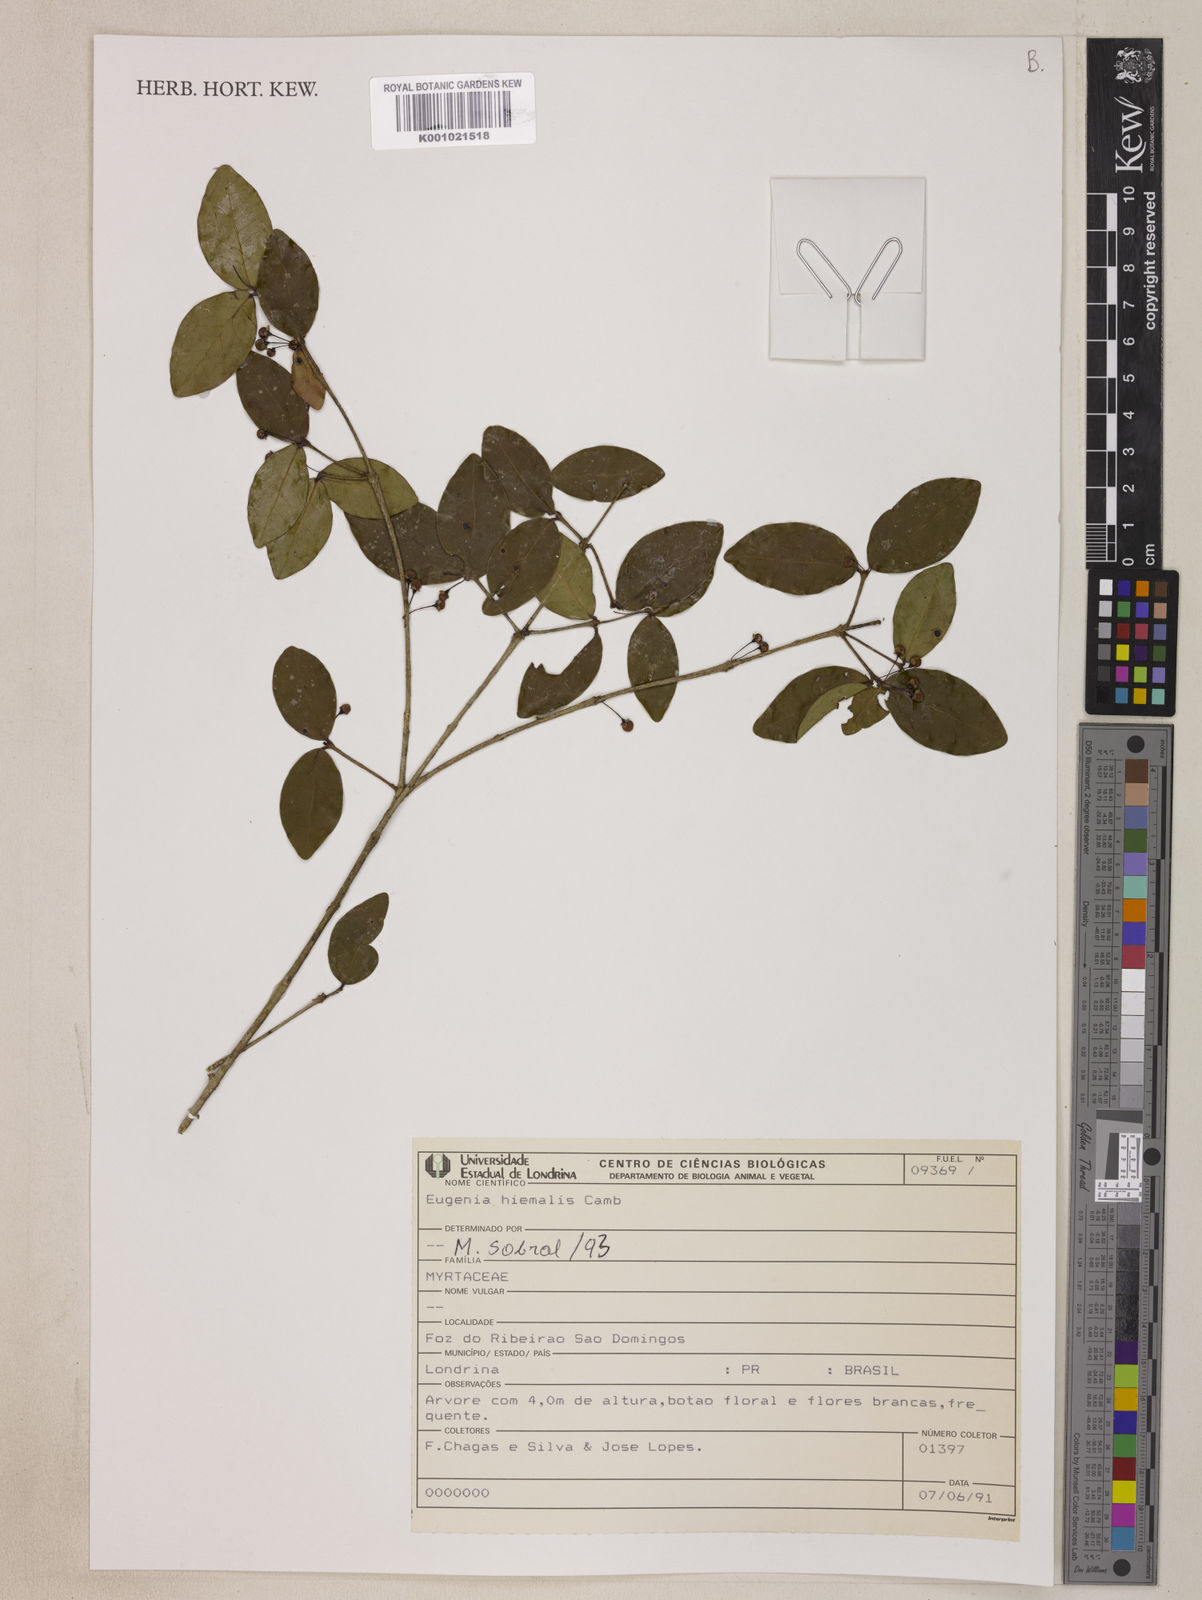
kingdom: Plantae
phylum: Tracheophyta
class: Magnoliopsida
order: Myrtales
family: Myrtaceae
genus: Eugenia
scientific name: Eugenia hiemalis
